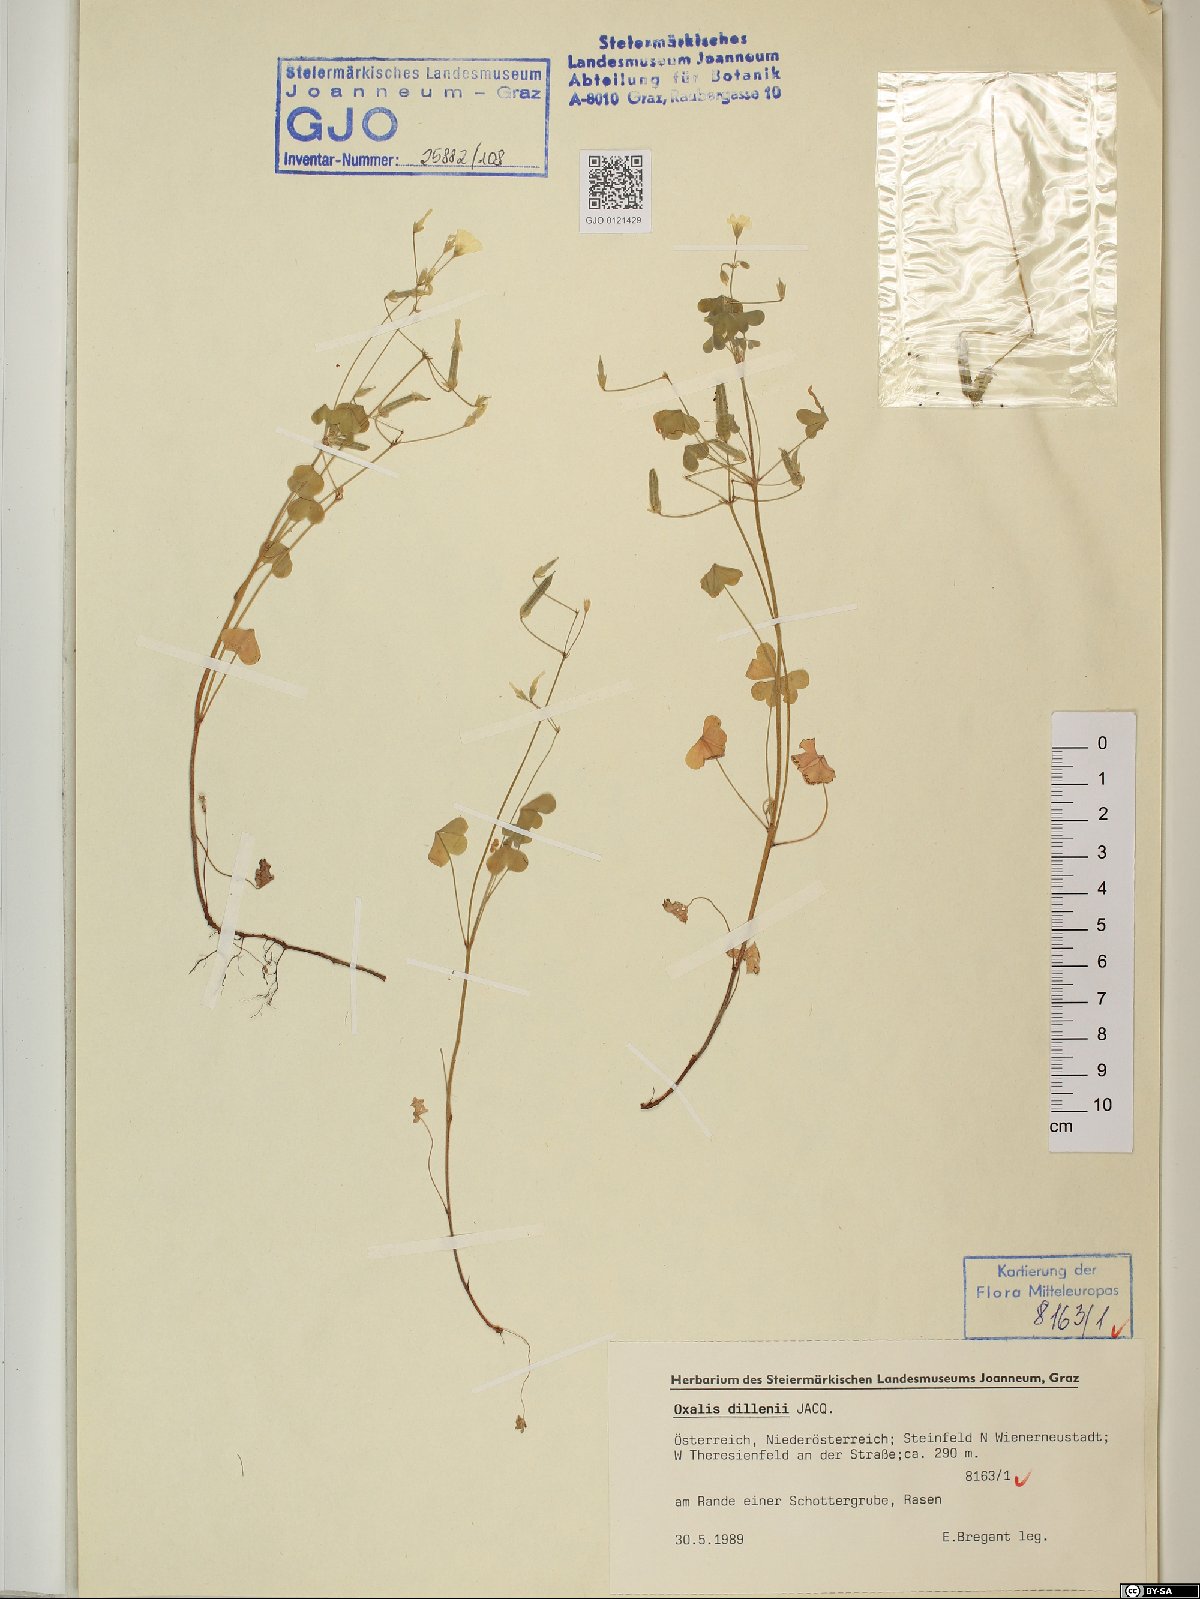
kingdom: Plantae
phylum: Tracheophyta
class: Magnoliopsida
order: Oxalidales
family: Oxalidaceae
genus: Oxalis
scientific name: Oxalis dillenii
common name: Sussex yellow-sorrel
